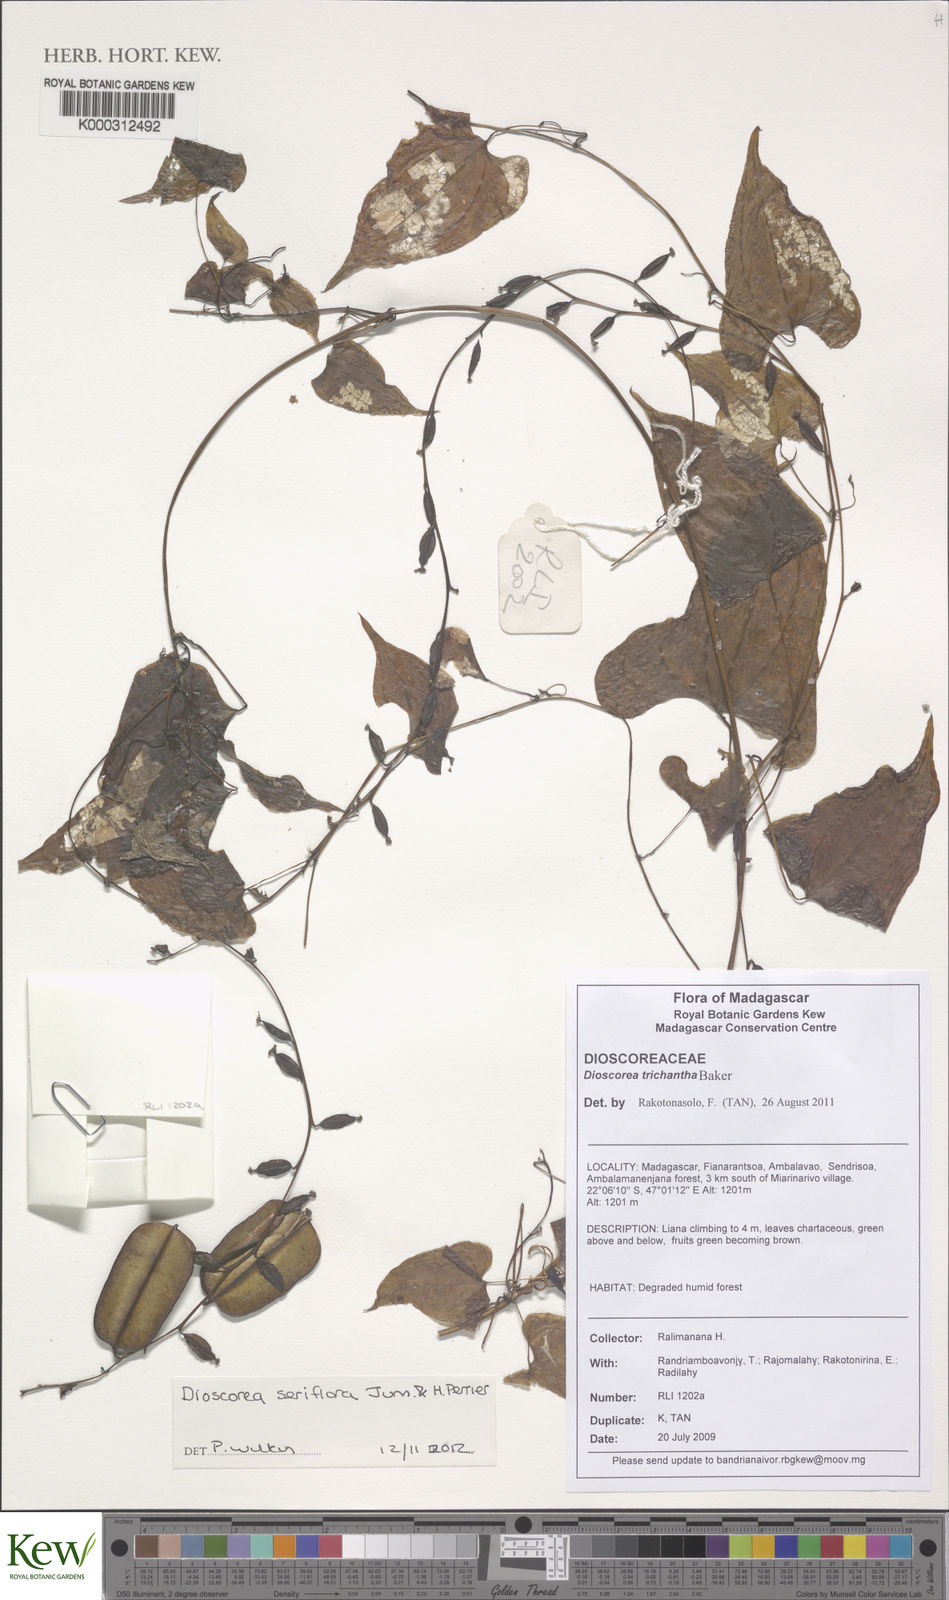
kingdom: Plantae
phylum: Tracheophyta
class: Liliopsida
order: Dioscoreales
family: Dioscoreaceae
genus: Dioscorea
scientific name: Dioscorea seriflora
